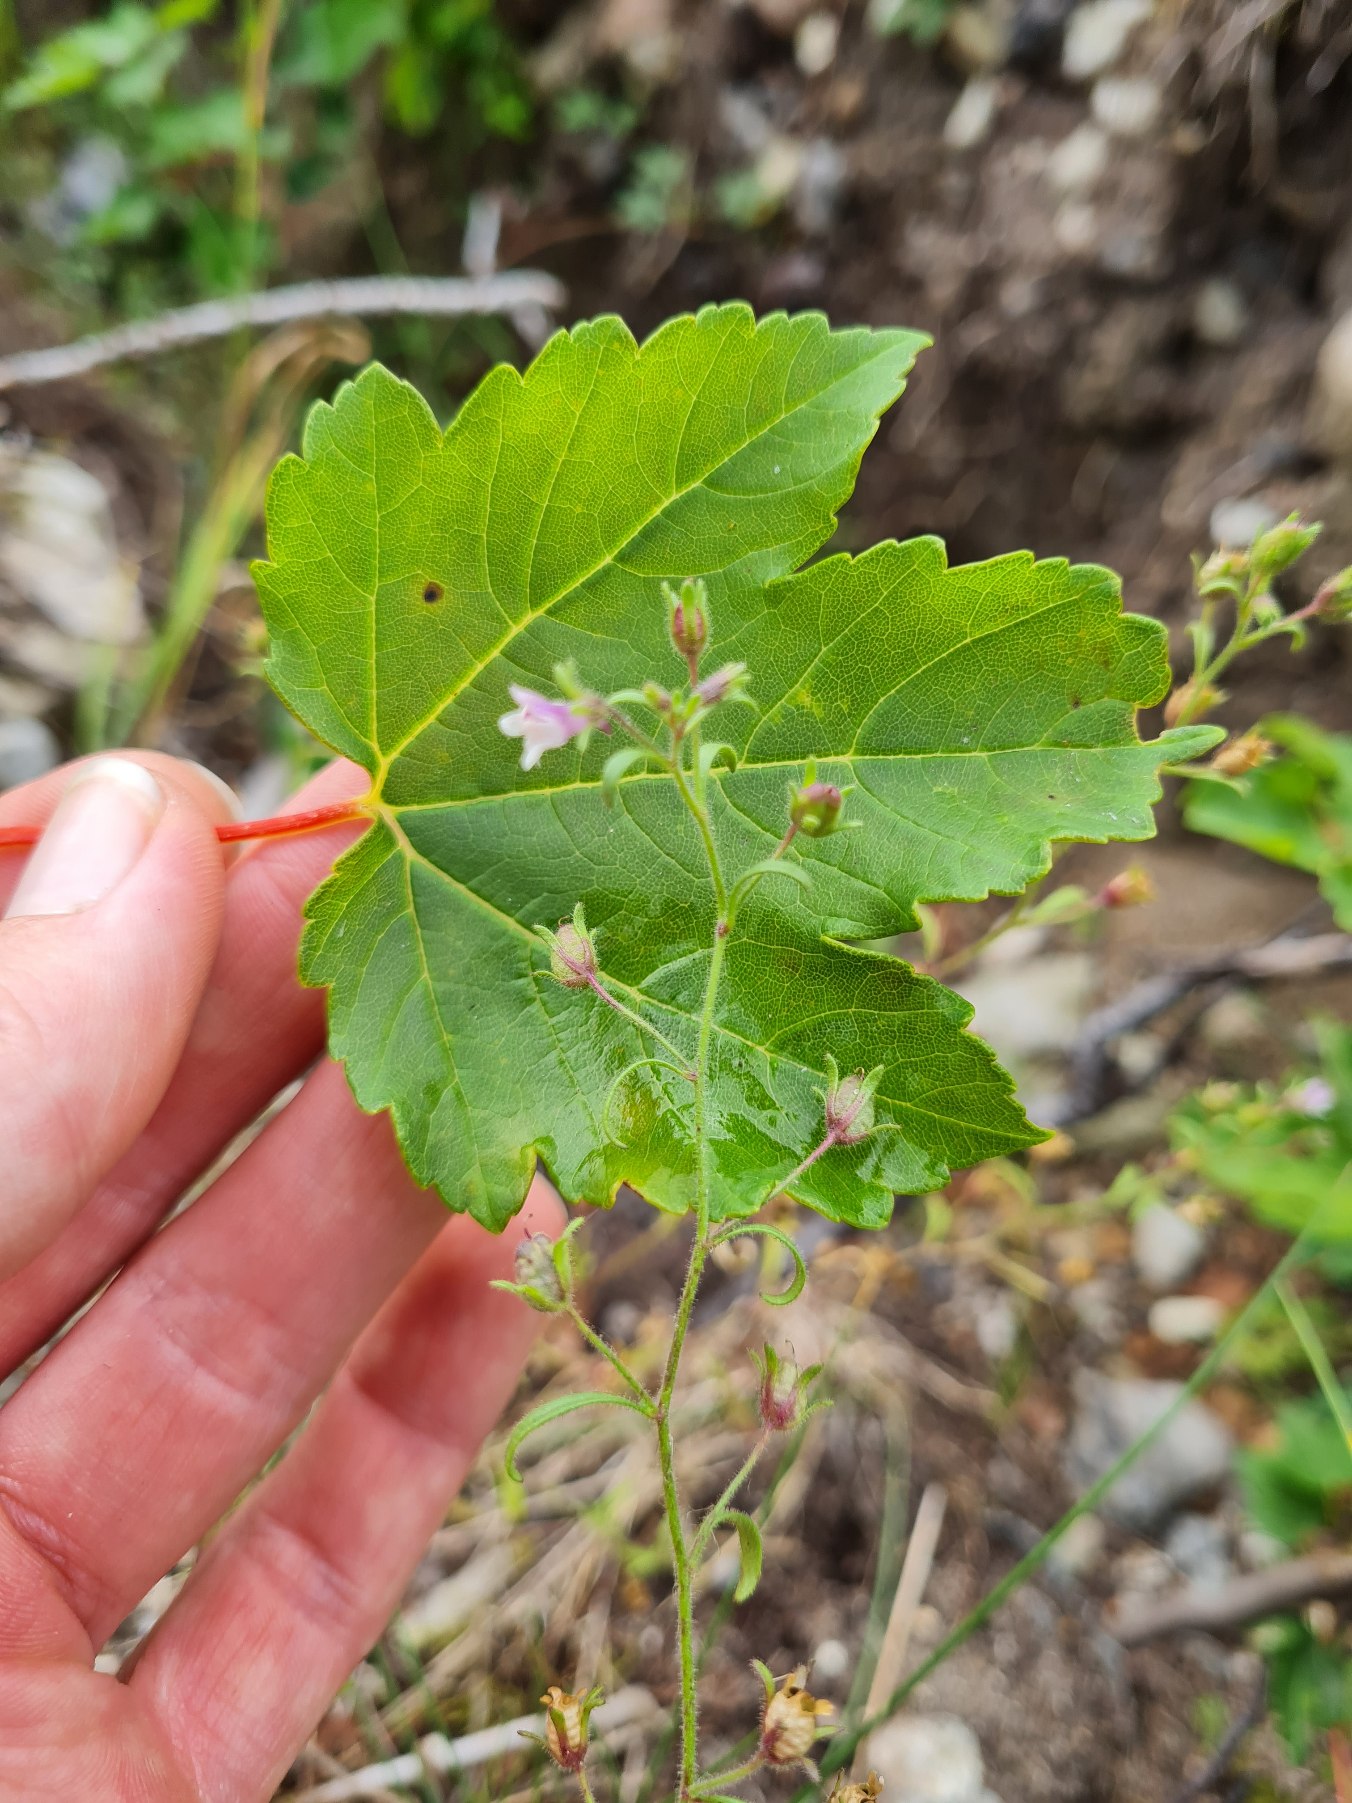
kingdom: Plantae
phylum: Tracheophyta
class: Magnoliopsida
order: Lamiales
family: Plantaginaceae
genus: Chaenorhinum
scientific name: Chaenorhinum minus
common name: Liden torskemund
